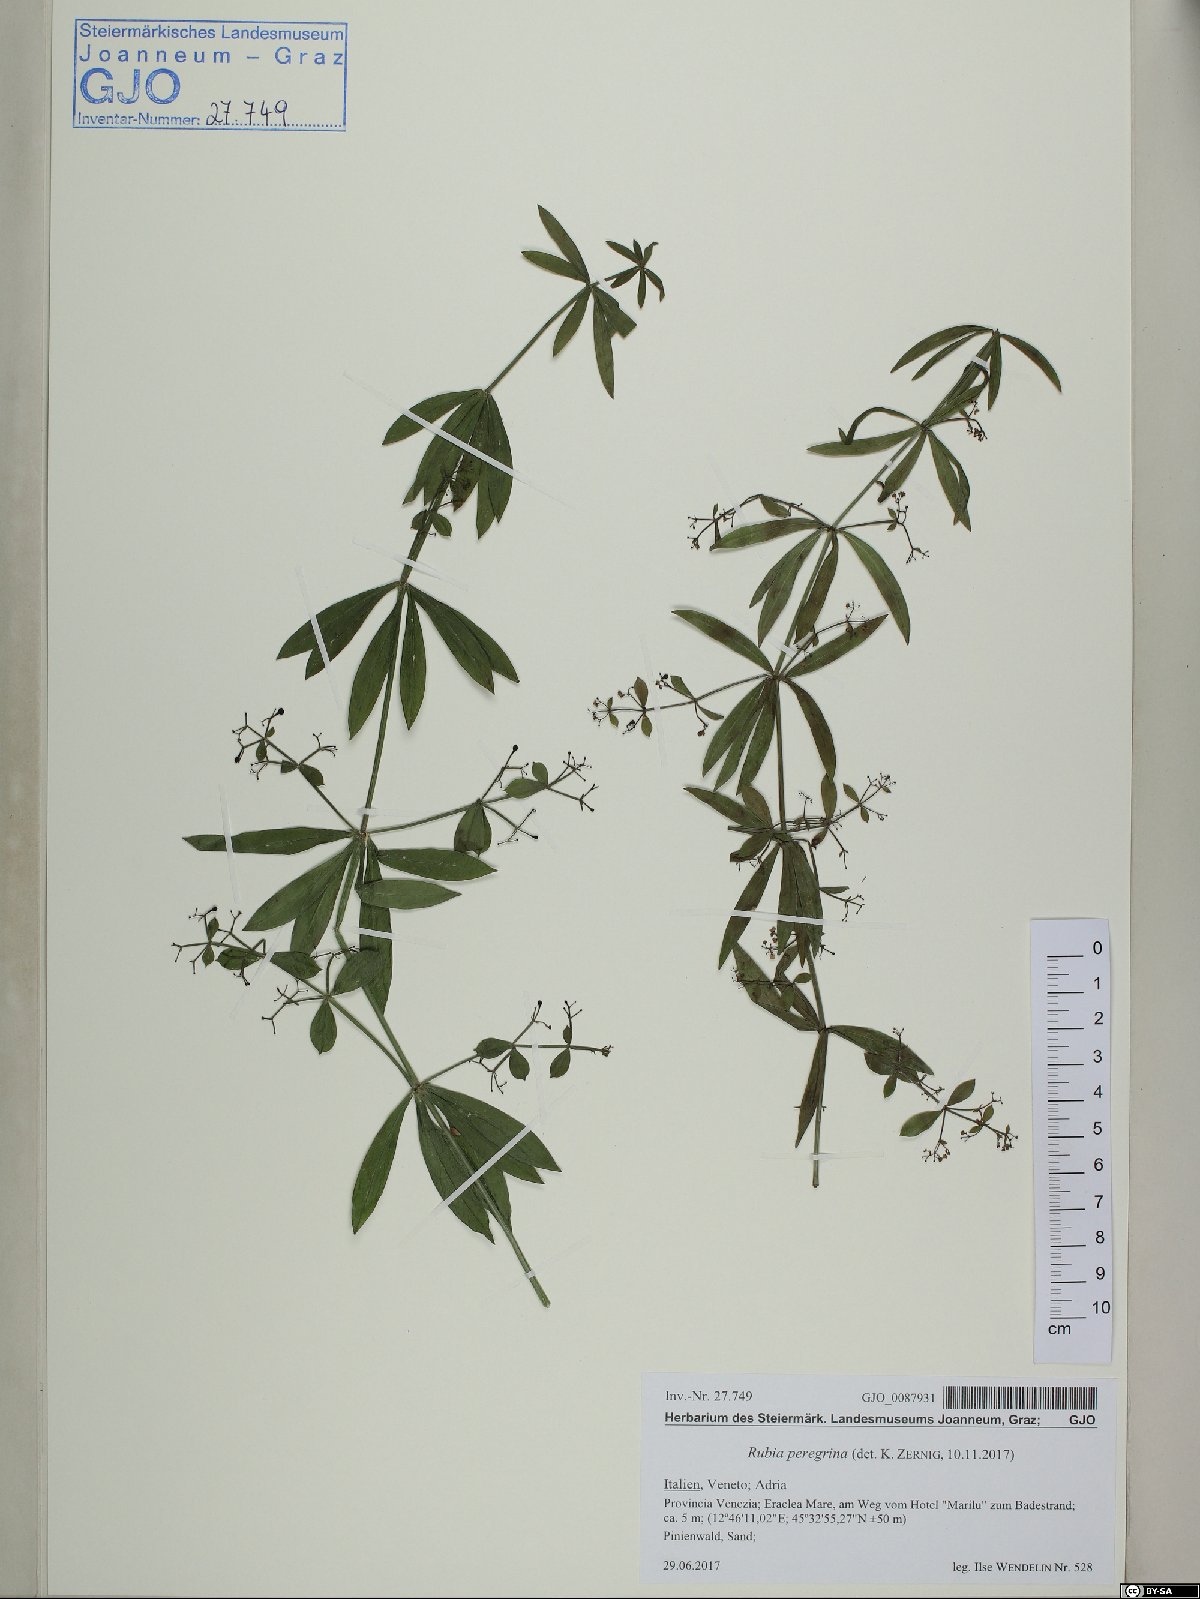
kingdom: Plantae
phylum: Tracheophyta
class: Magnoliopsida
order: Gentianales
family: Rubiaceae
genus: Rubia
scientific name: Rubia peregrina
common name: Wild madder
